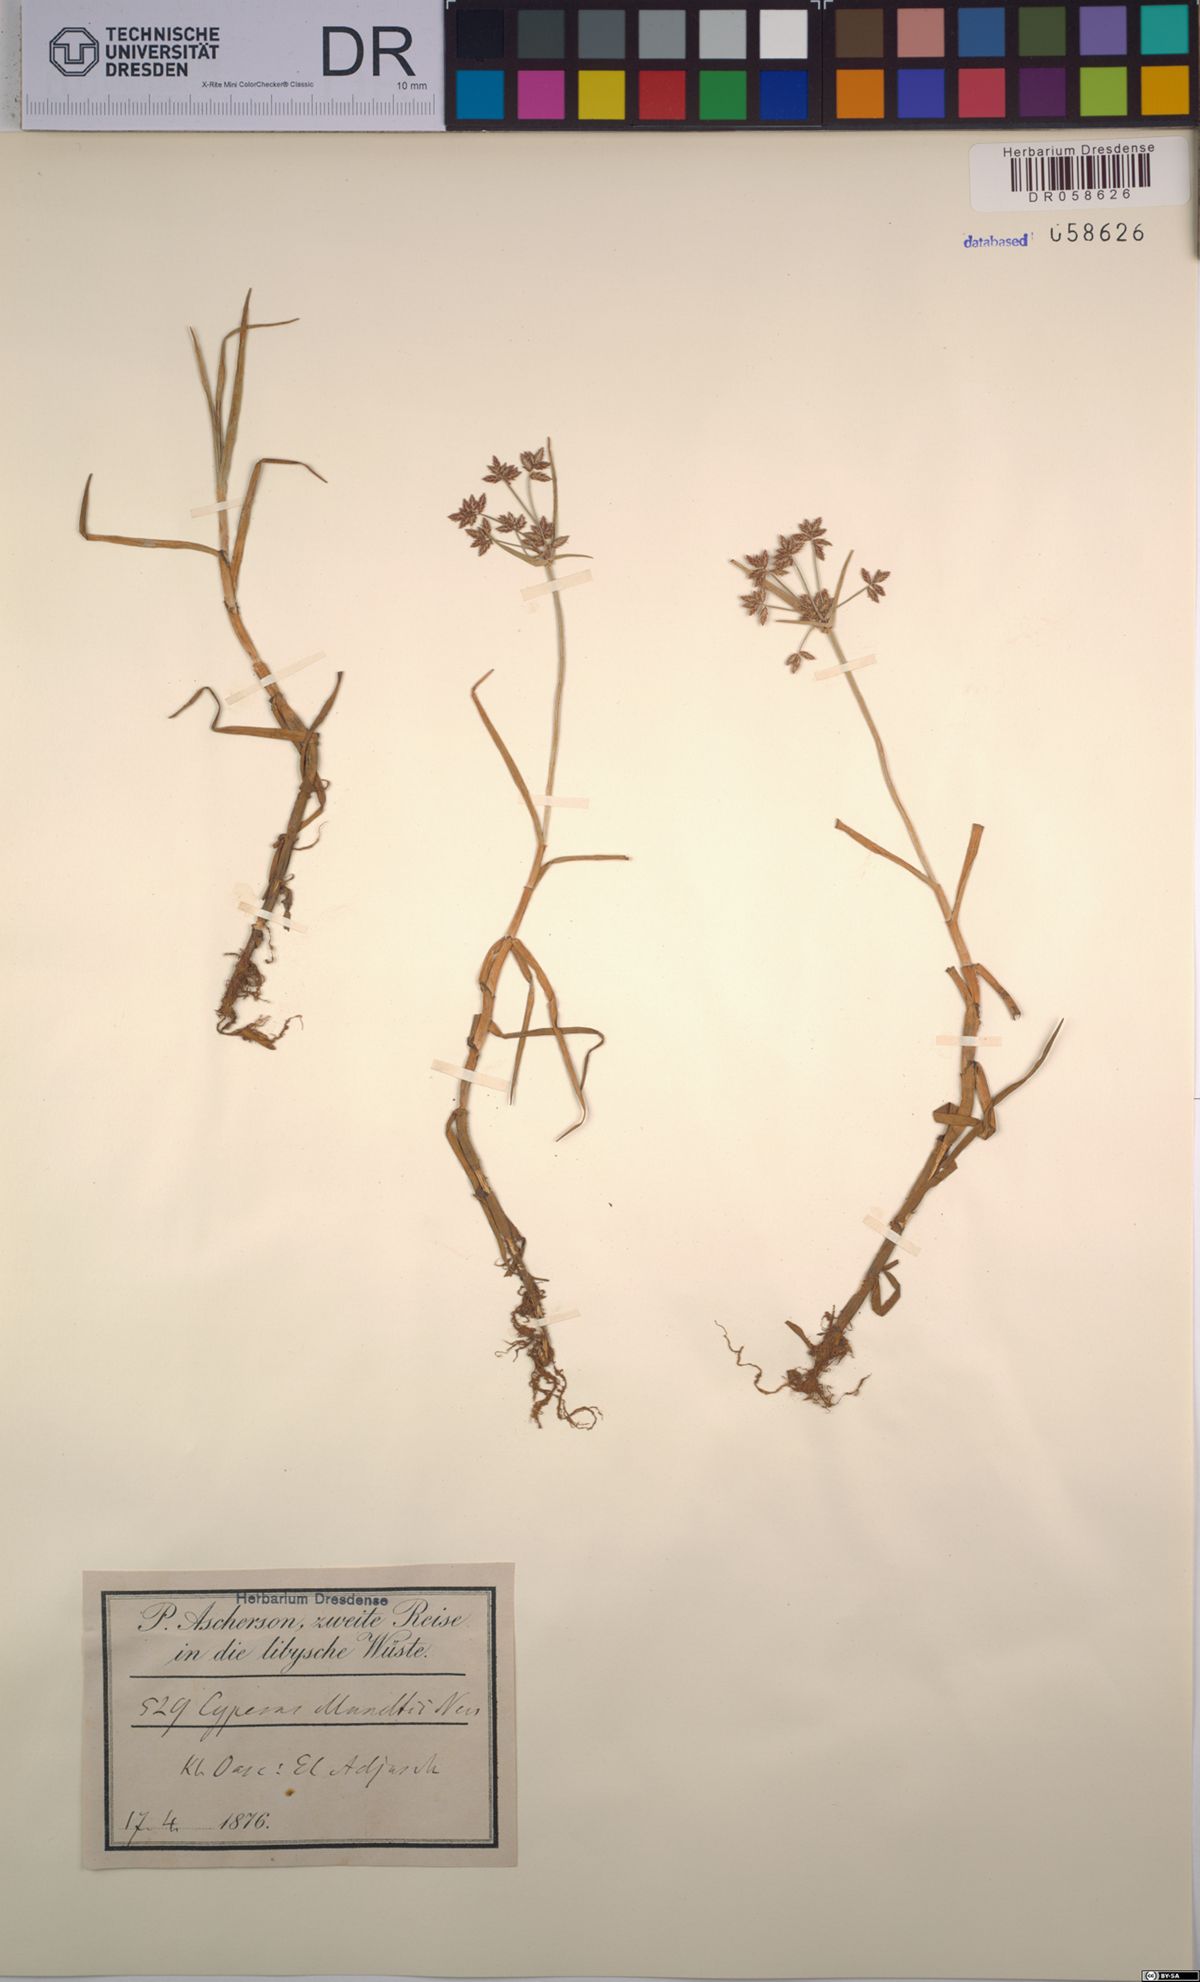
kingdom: Plantae
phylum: Tracheophyta
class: Liliopsida
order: Poales
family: Cyperaceae
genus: Cyperus
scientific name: Cyperus mundii
